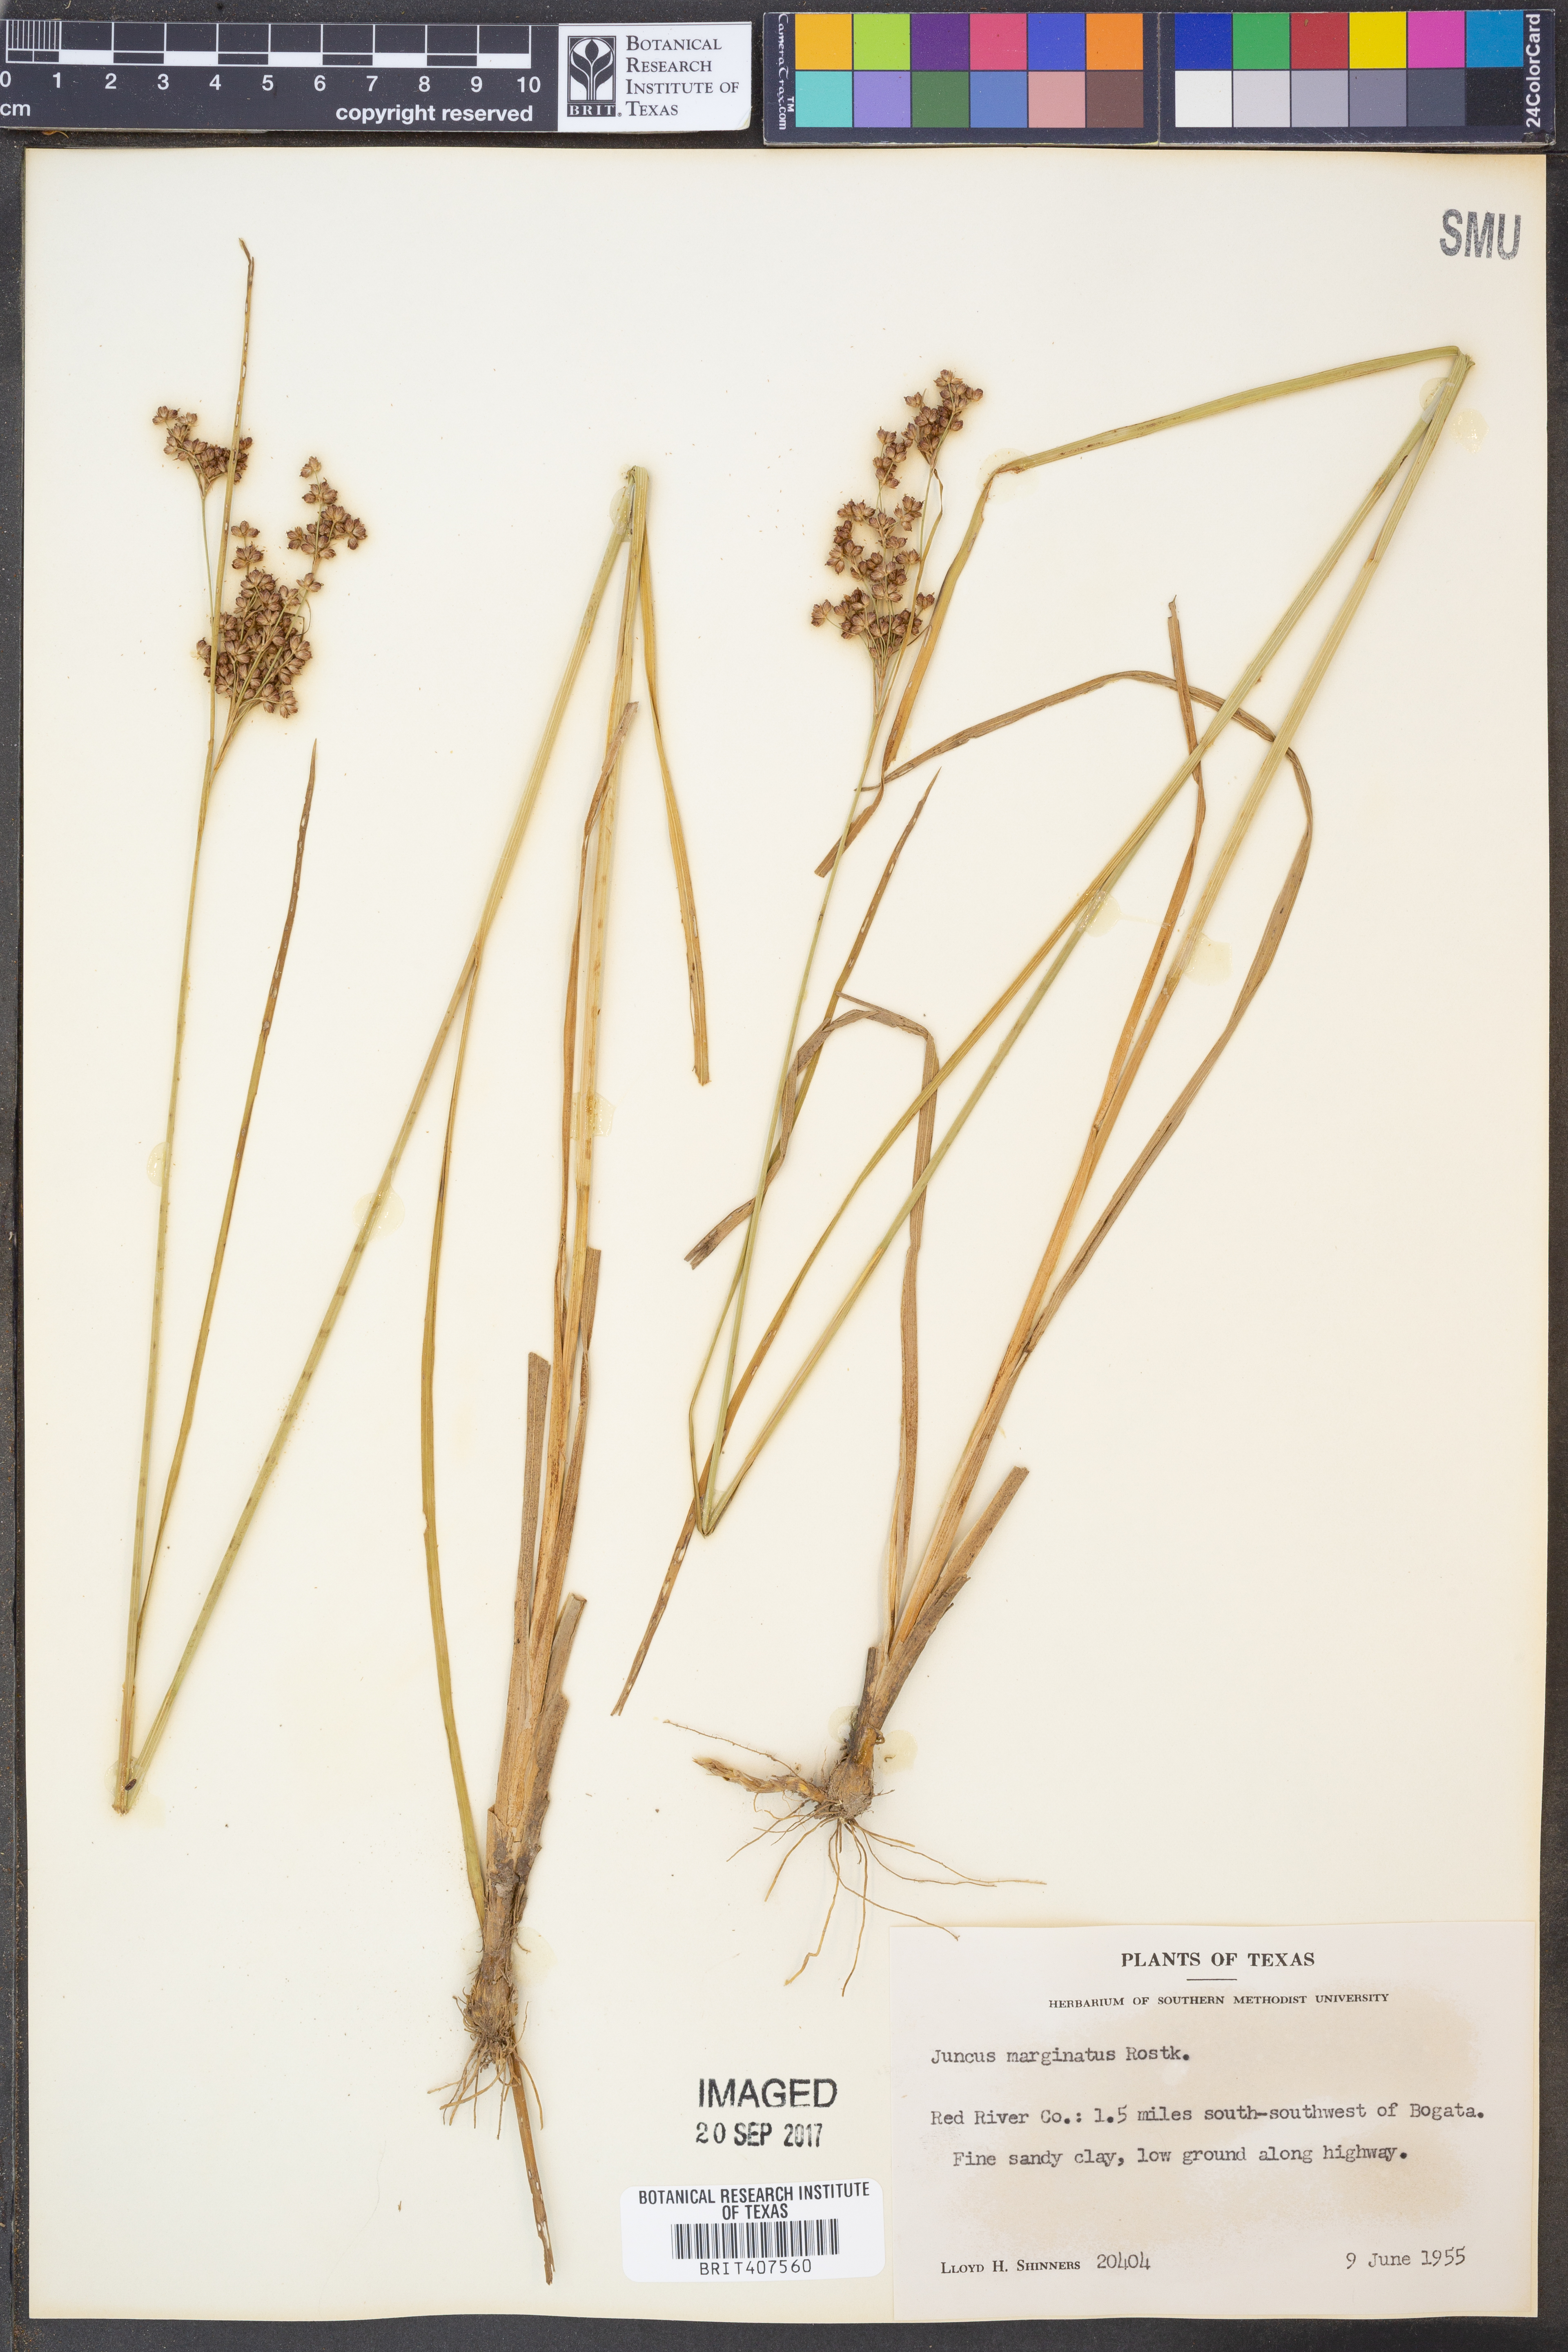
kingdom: Plantae
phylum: Tracheophyta
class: Liliopsida
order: Poales
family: Juncaceae
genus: Juncus
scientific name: Juncus marginatus
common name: Grass-leaf rush
